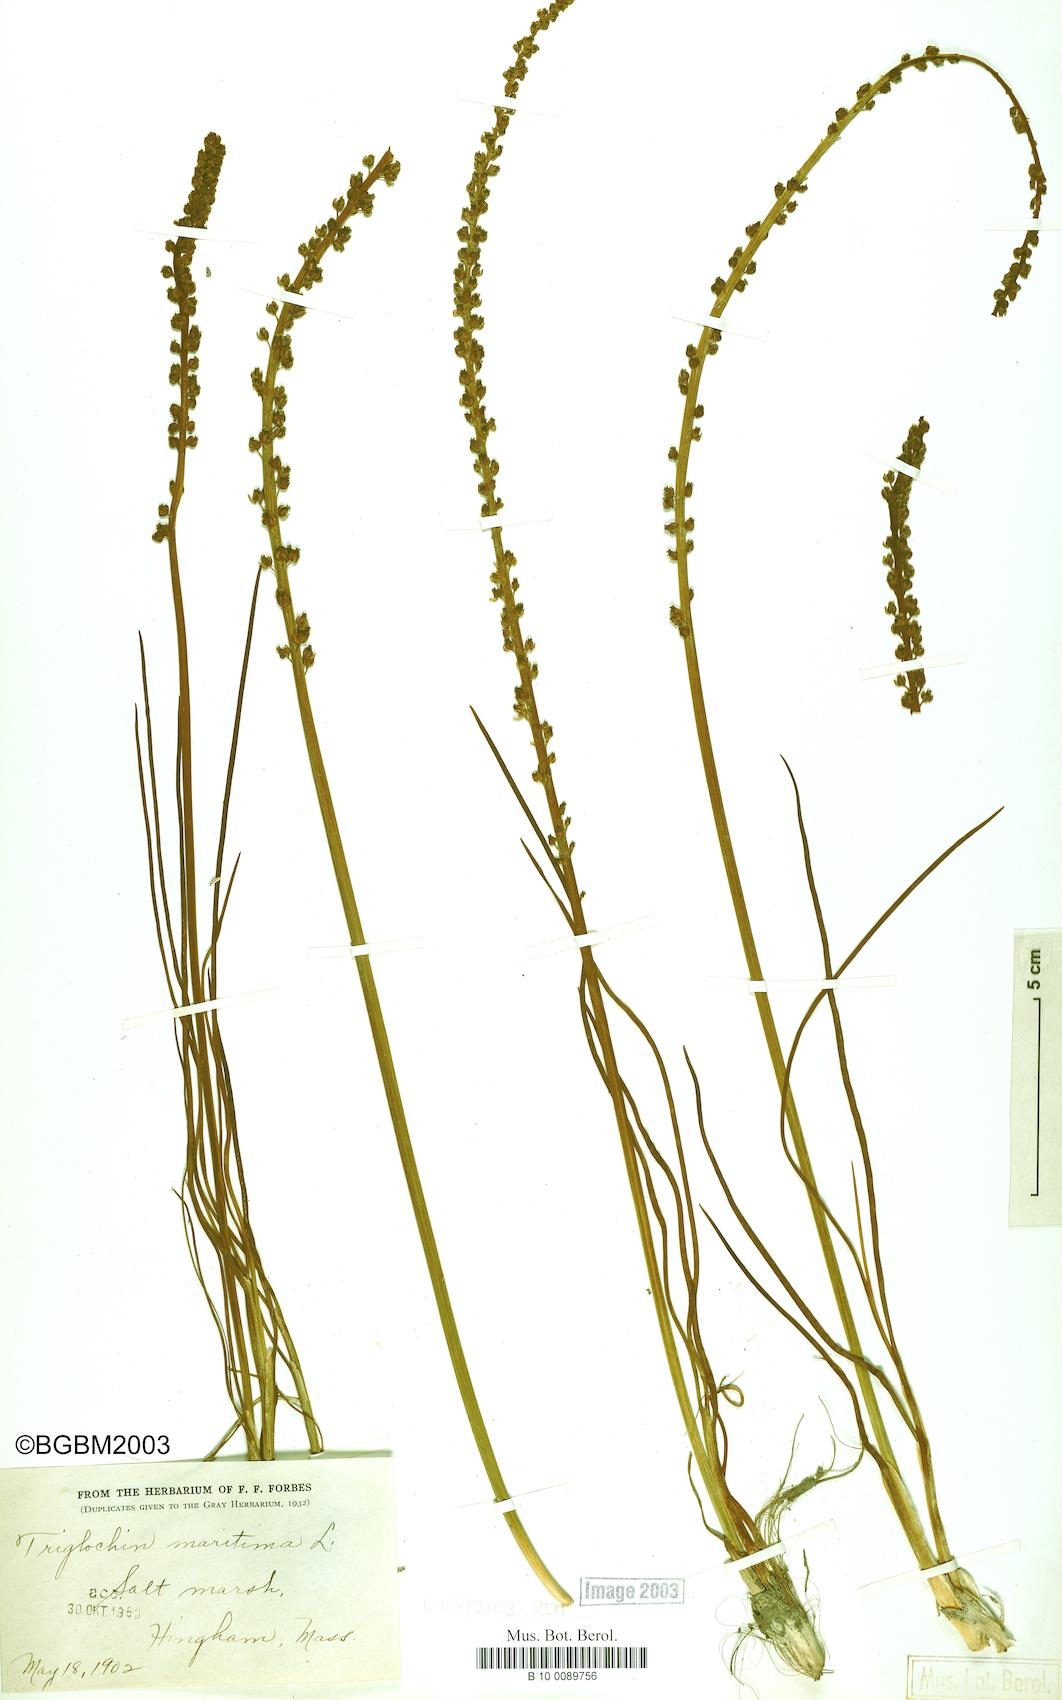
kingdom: Plantae
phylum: Tracheophyta
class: Liliopsida
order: Alismatales
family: Juncaginaceae
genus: Triglochin
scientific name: Triglochin maritima
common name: Sea arrowgrass
